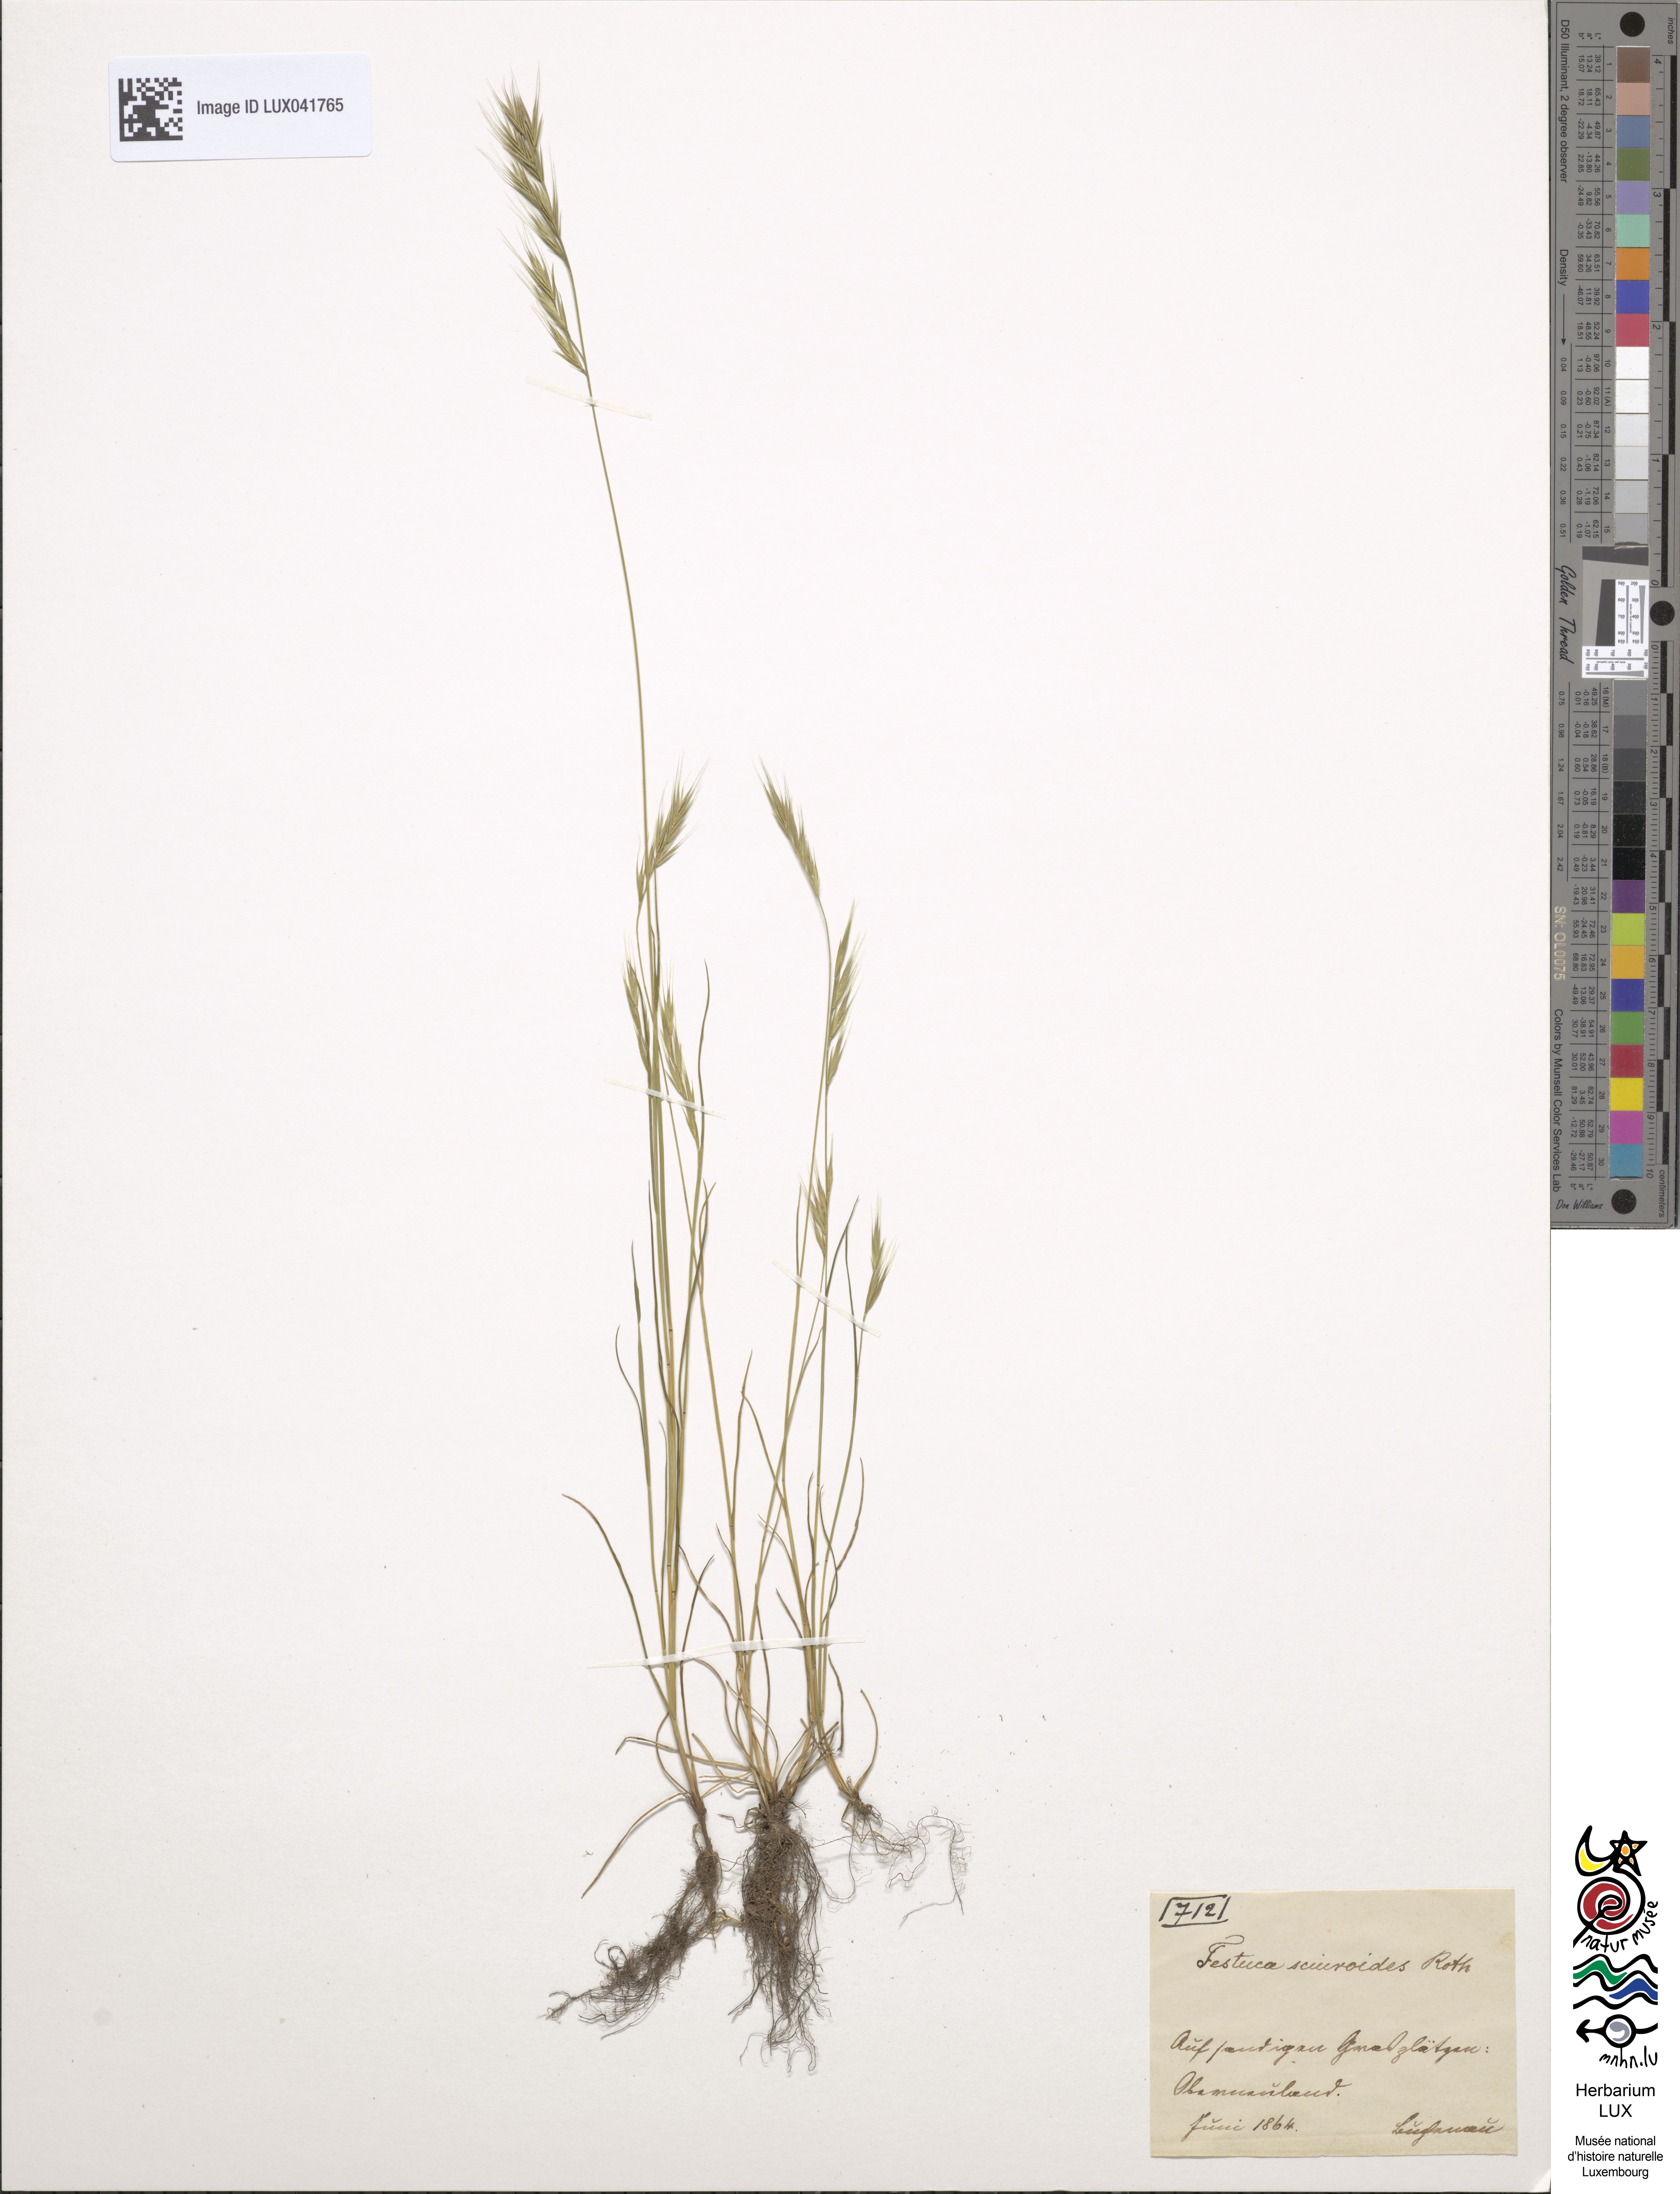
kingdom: Plantae
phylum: Tracheophyta
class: Liliopsida
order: Poales
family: Poaceae
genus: Festuca
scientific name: Festuca bromoides
